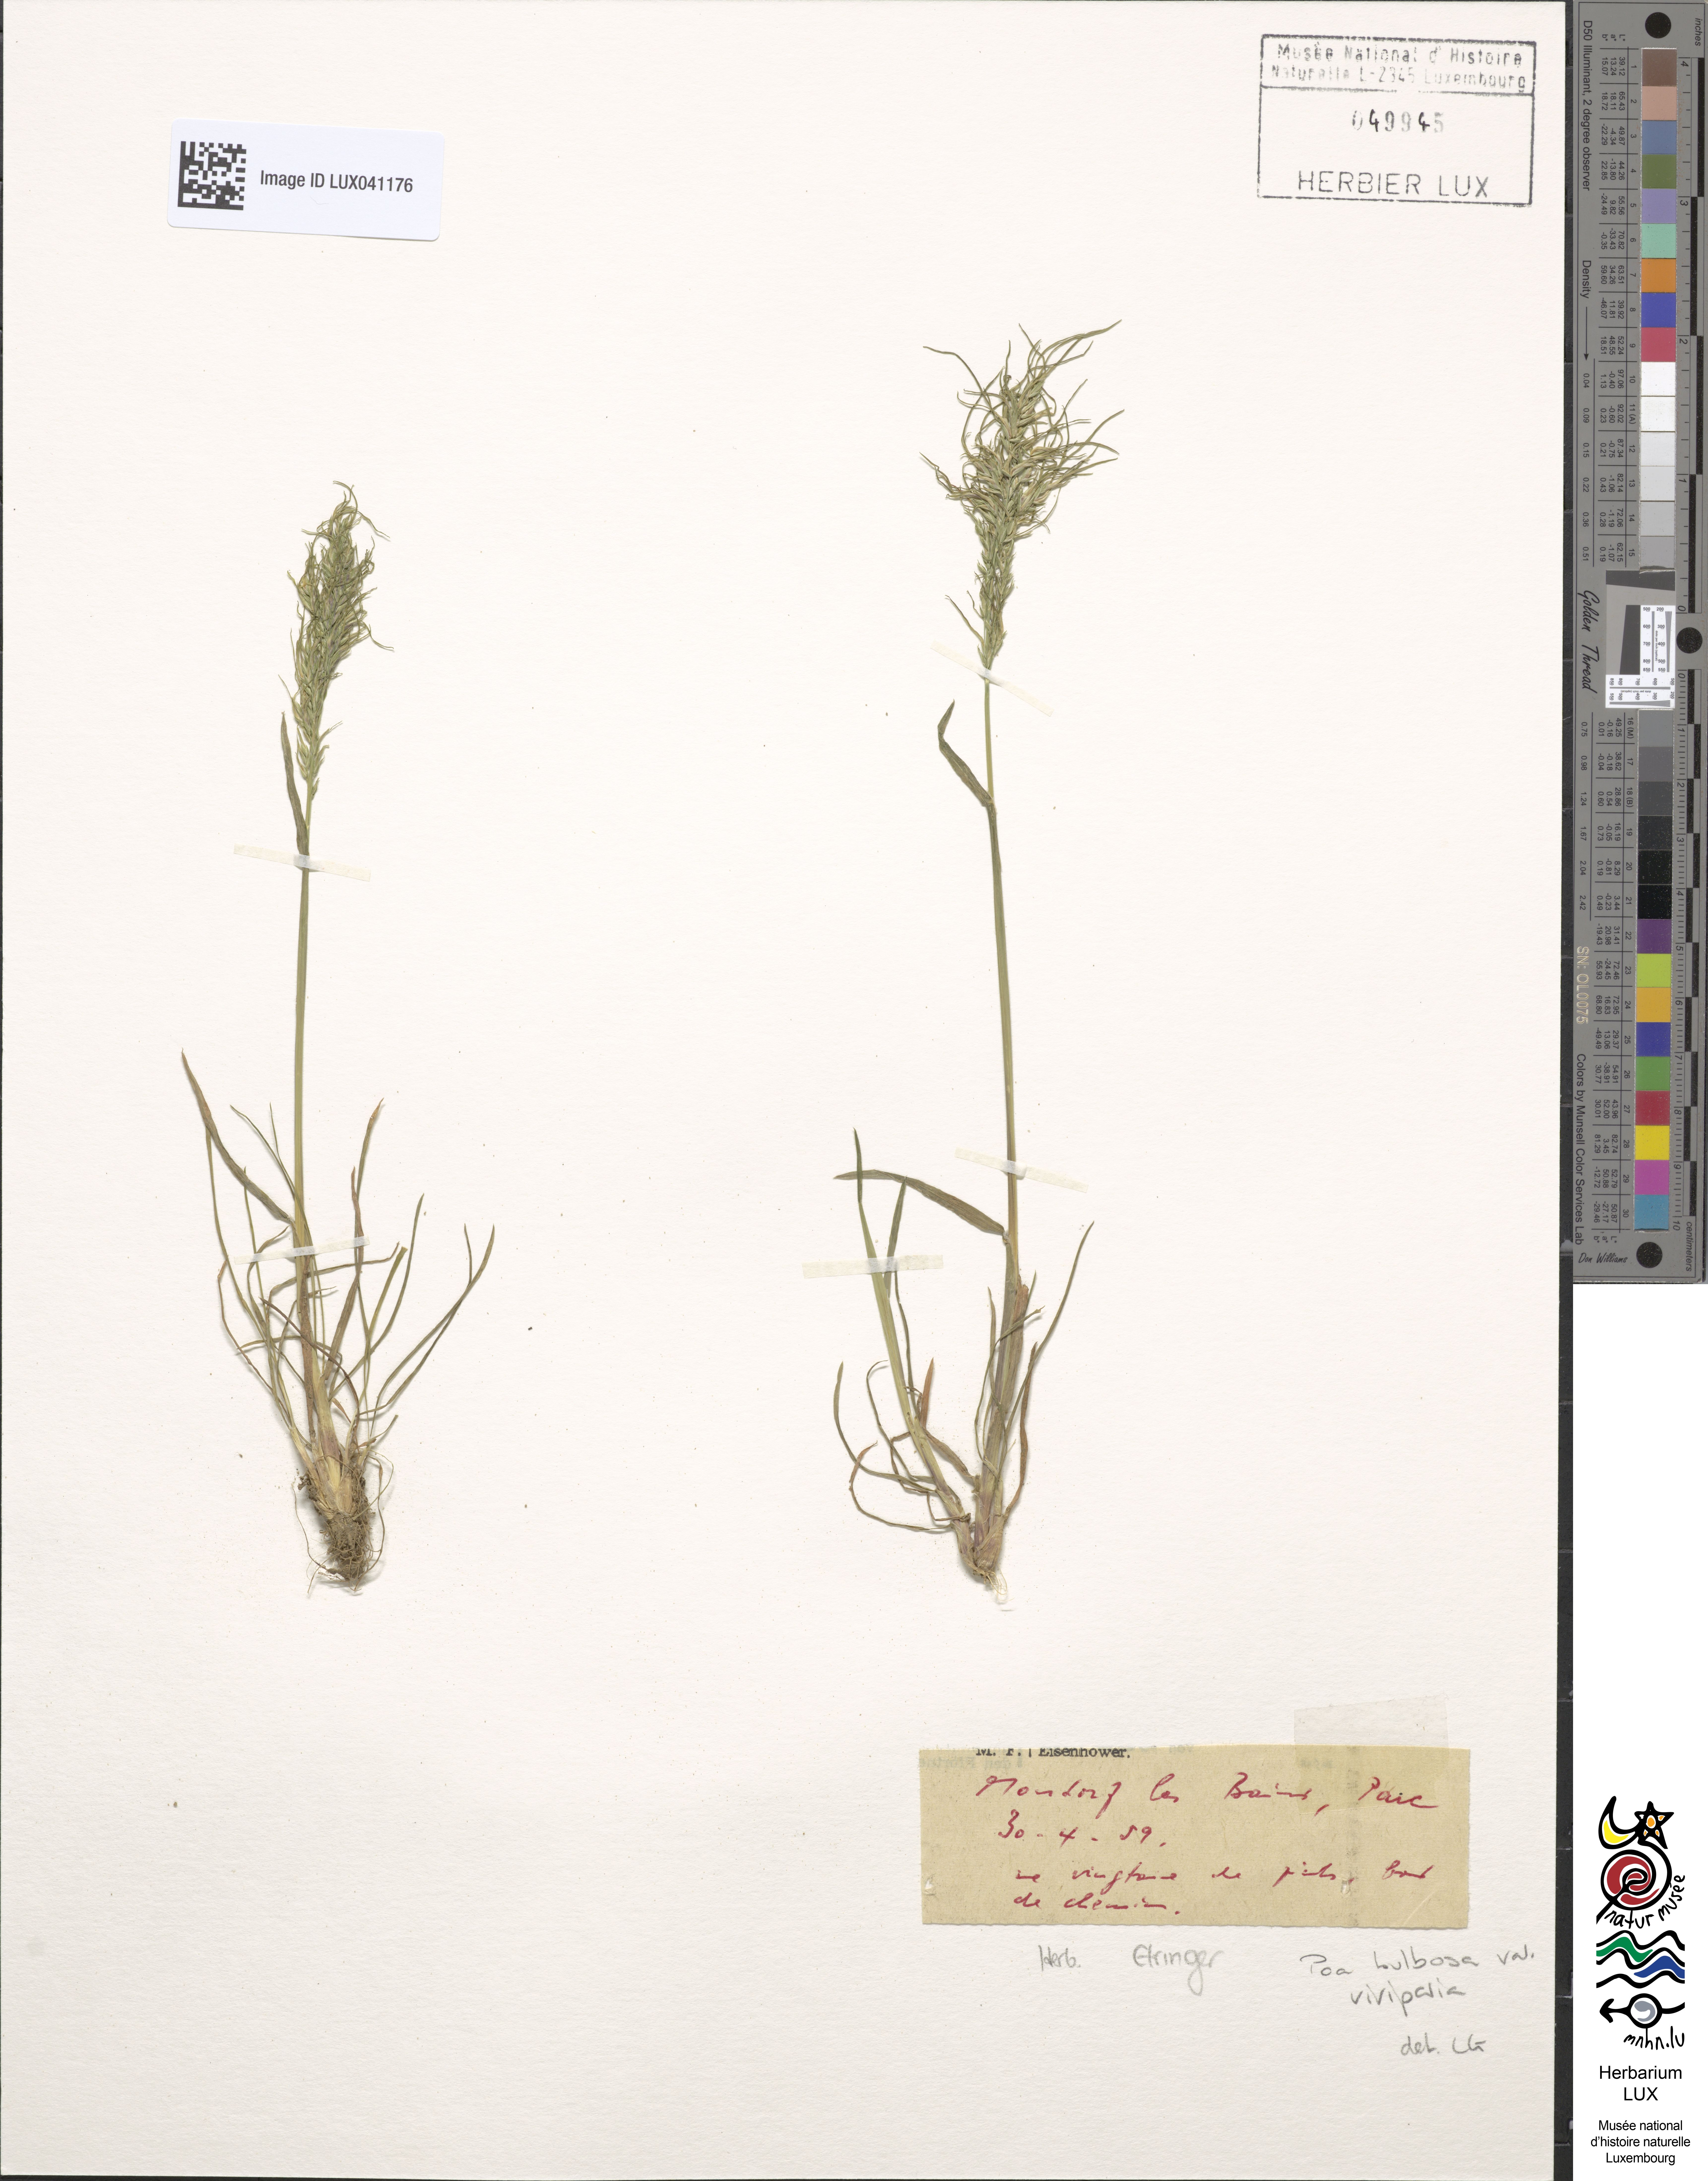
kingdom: Plantae
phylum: Tracheophyta
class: Liliopsida
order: Poales
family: Poaceae
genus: Poa
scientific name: Poa bulbosa
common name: Bulbous bluegrass
